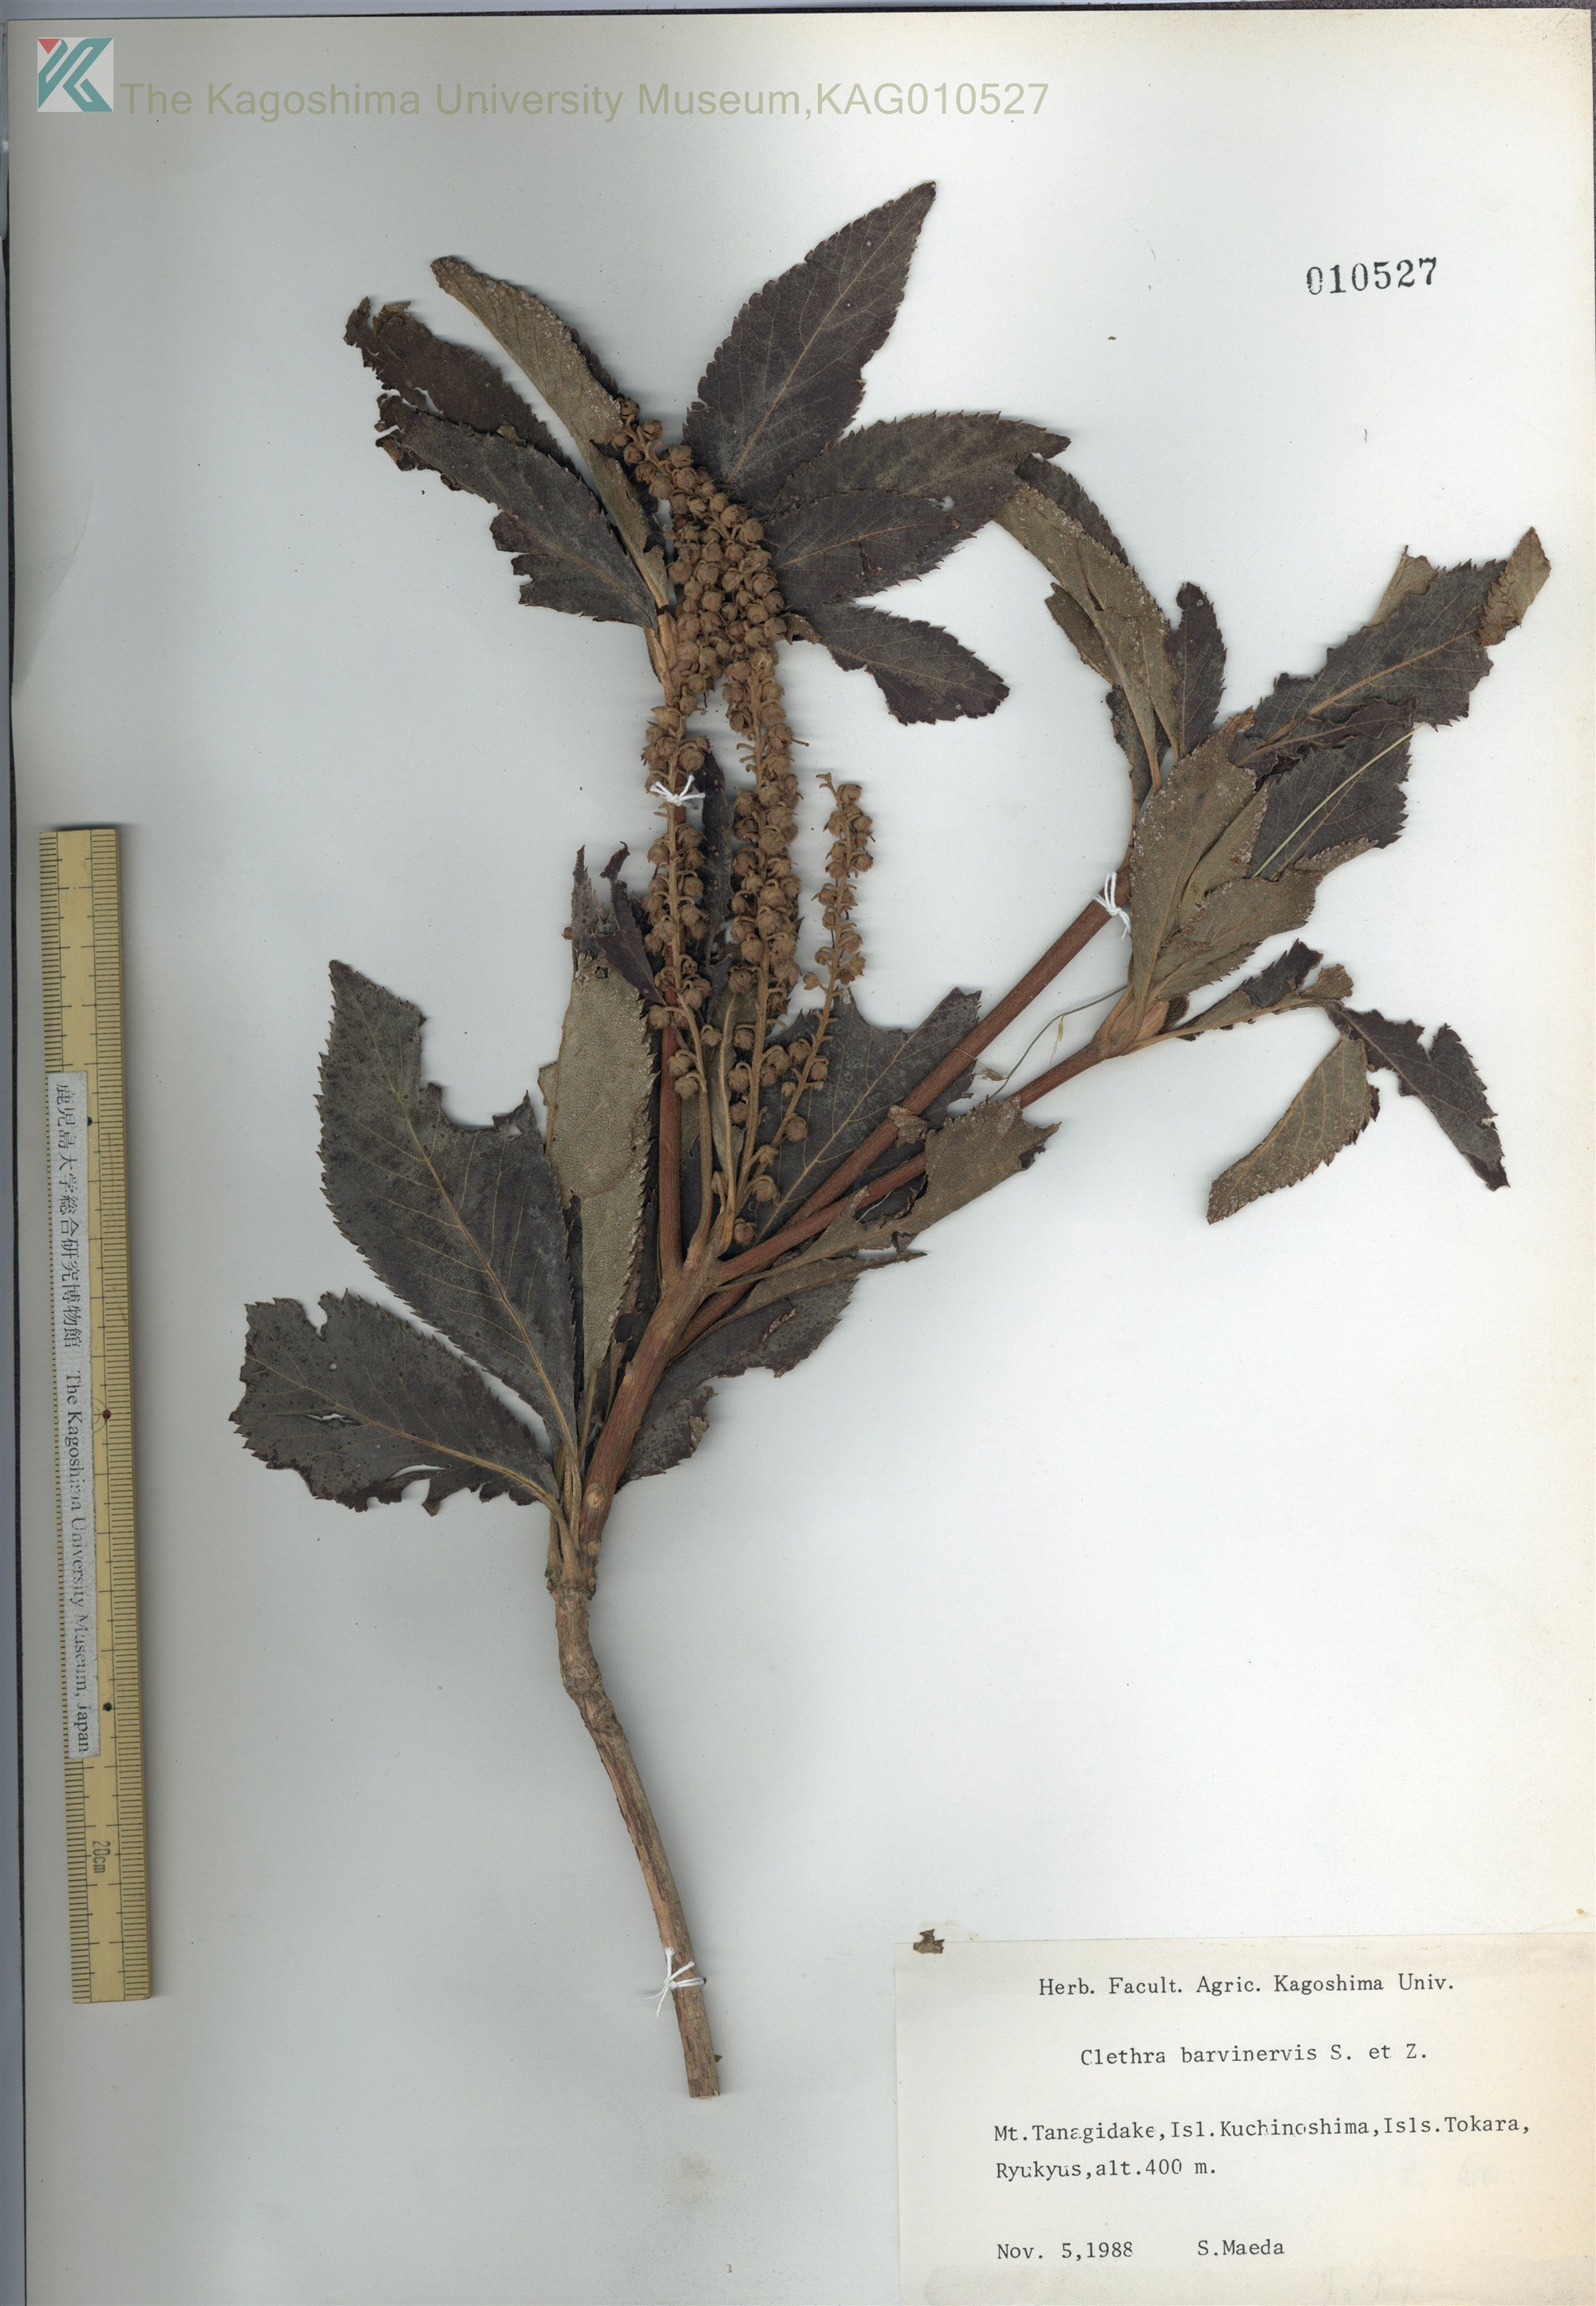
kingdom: Plantae
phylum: Tracheophyta
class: Magnoliopsida
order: Ericales
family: Clethraceae
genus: Clethra
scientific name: Clethra barbinervis
